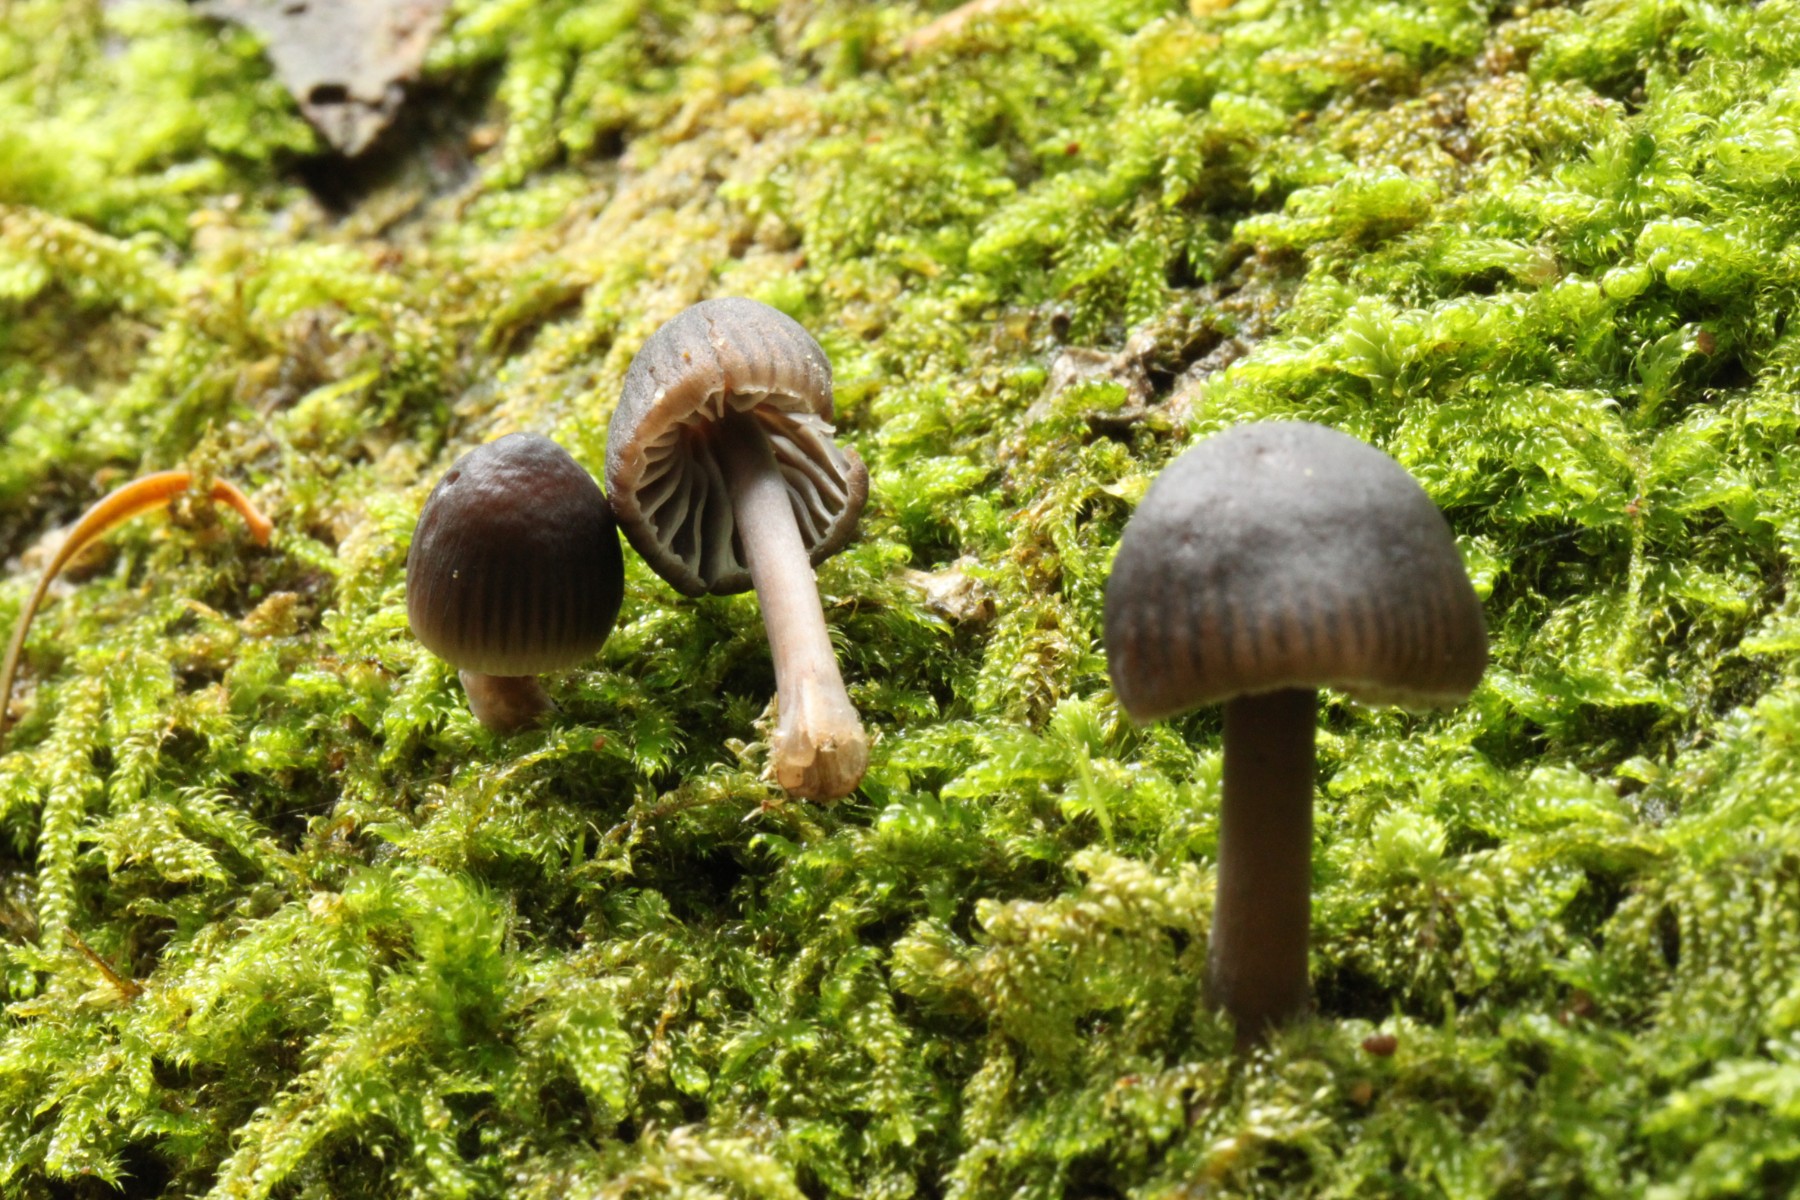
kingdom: Fungi
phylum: Basidiomycota
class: Agaricomycetes
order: Agaricales
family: Mycenaceae
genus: Mycena
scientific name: Mycena
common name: huesvamp
